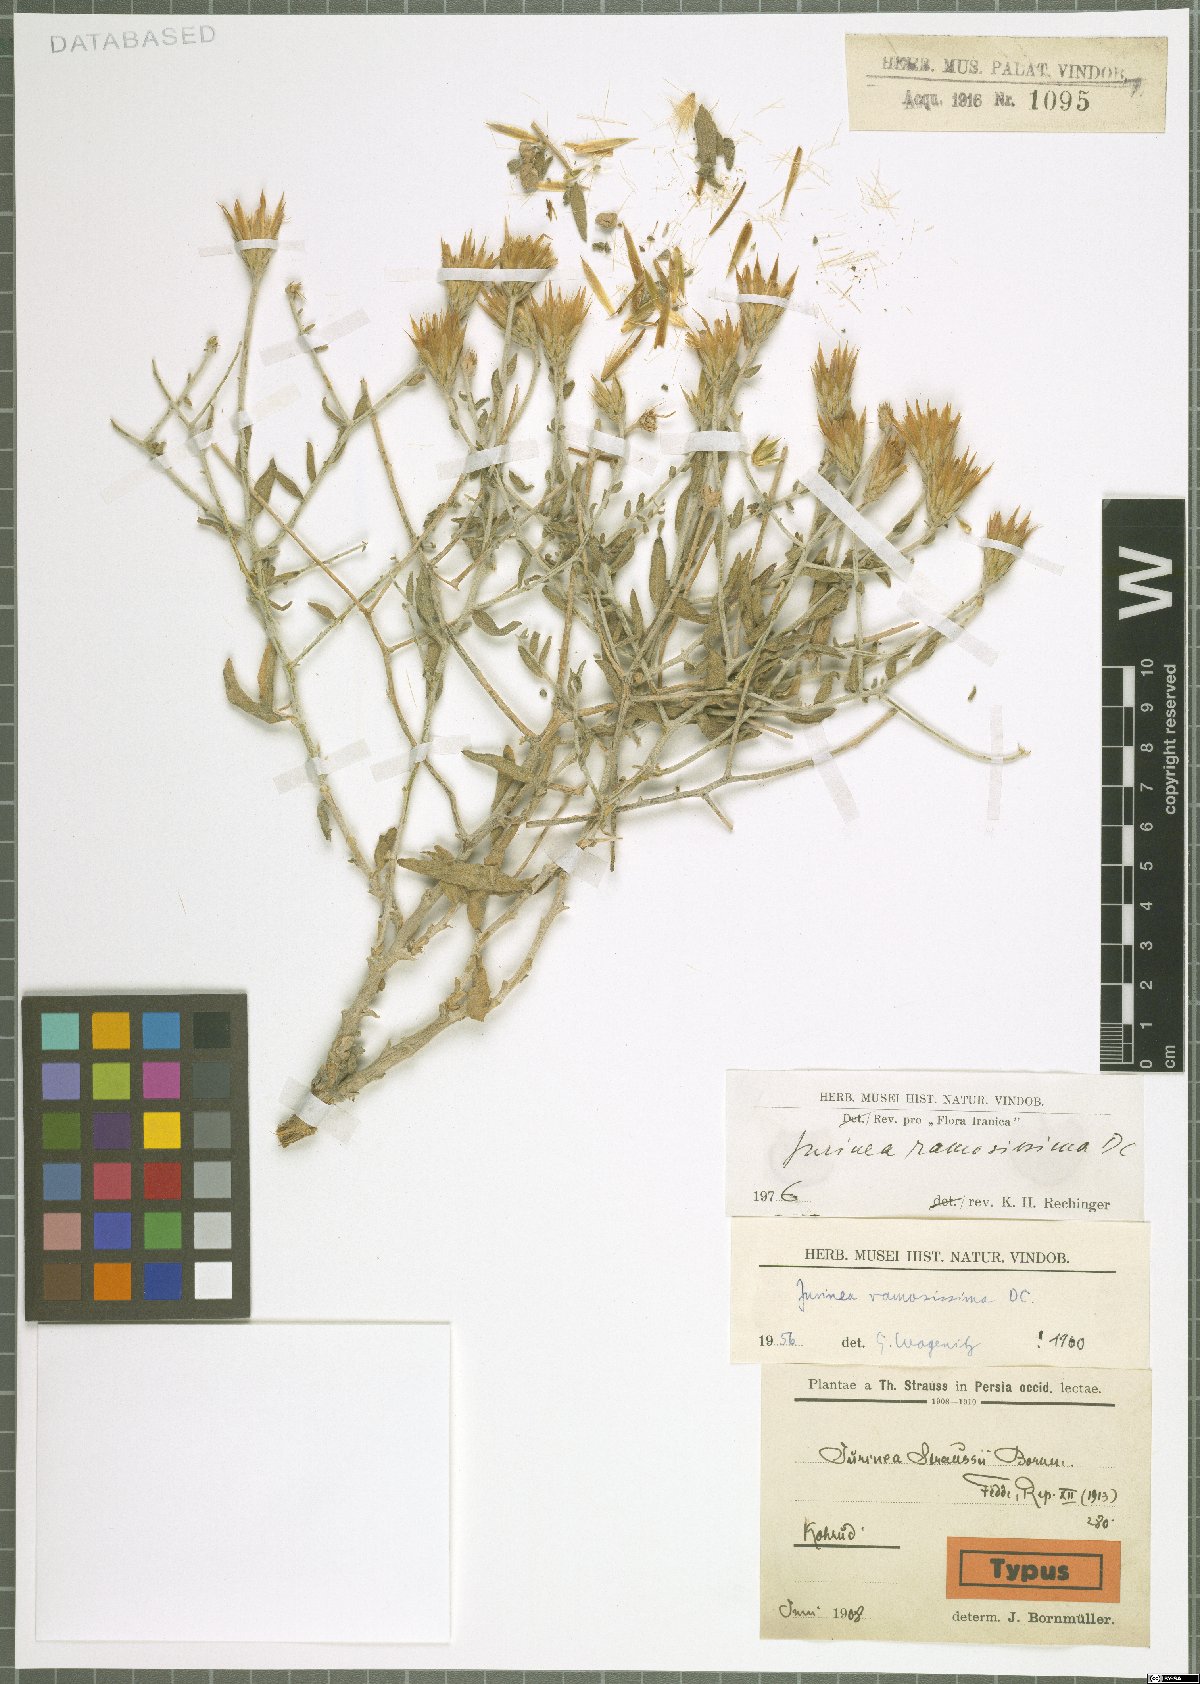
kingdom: Plantae
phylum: Tracheophyta
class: Magnoliopsida
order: Asterales
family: Asteraceae
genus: Jurinea
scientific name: Jurinea ramosissima
